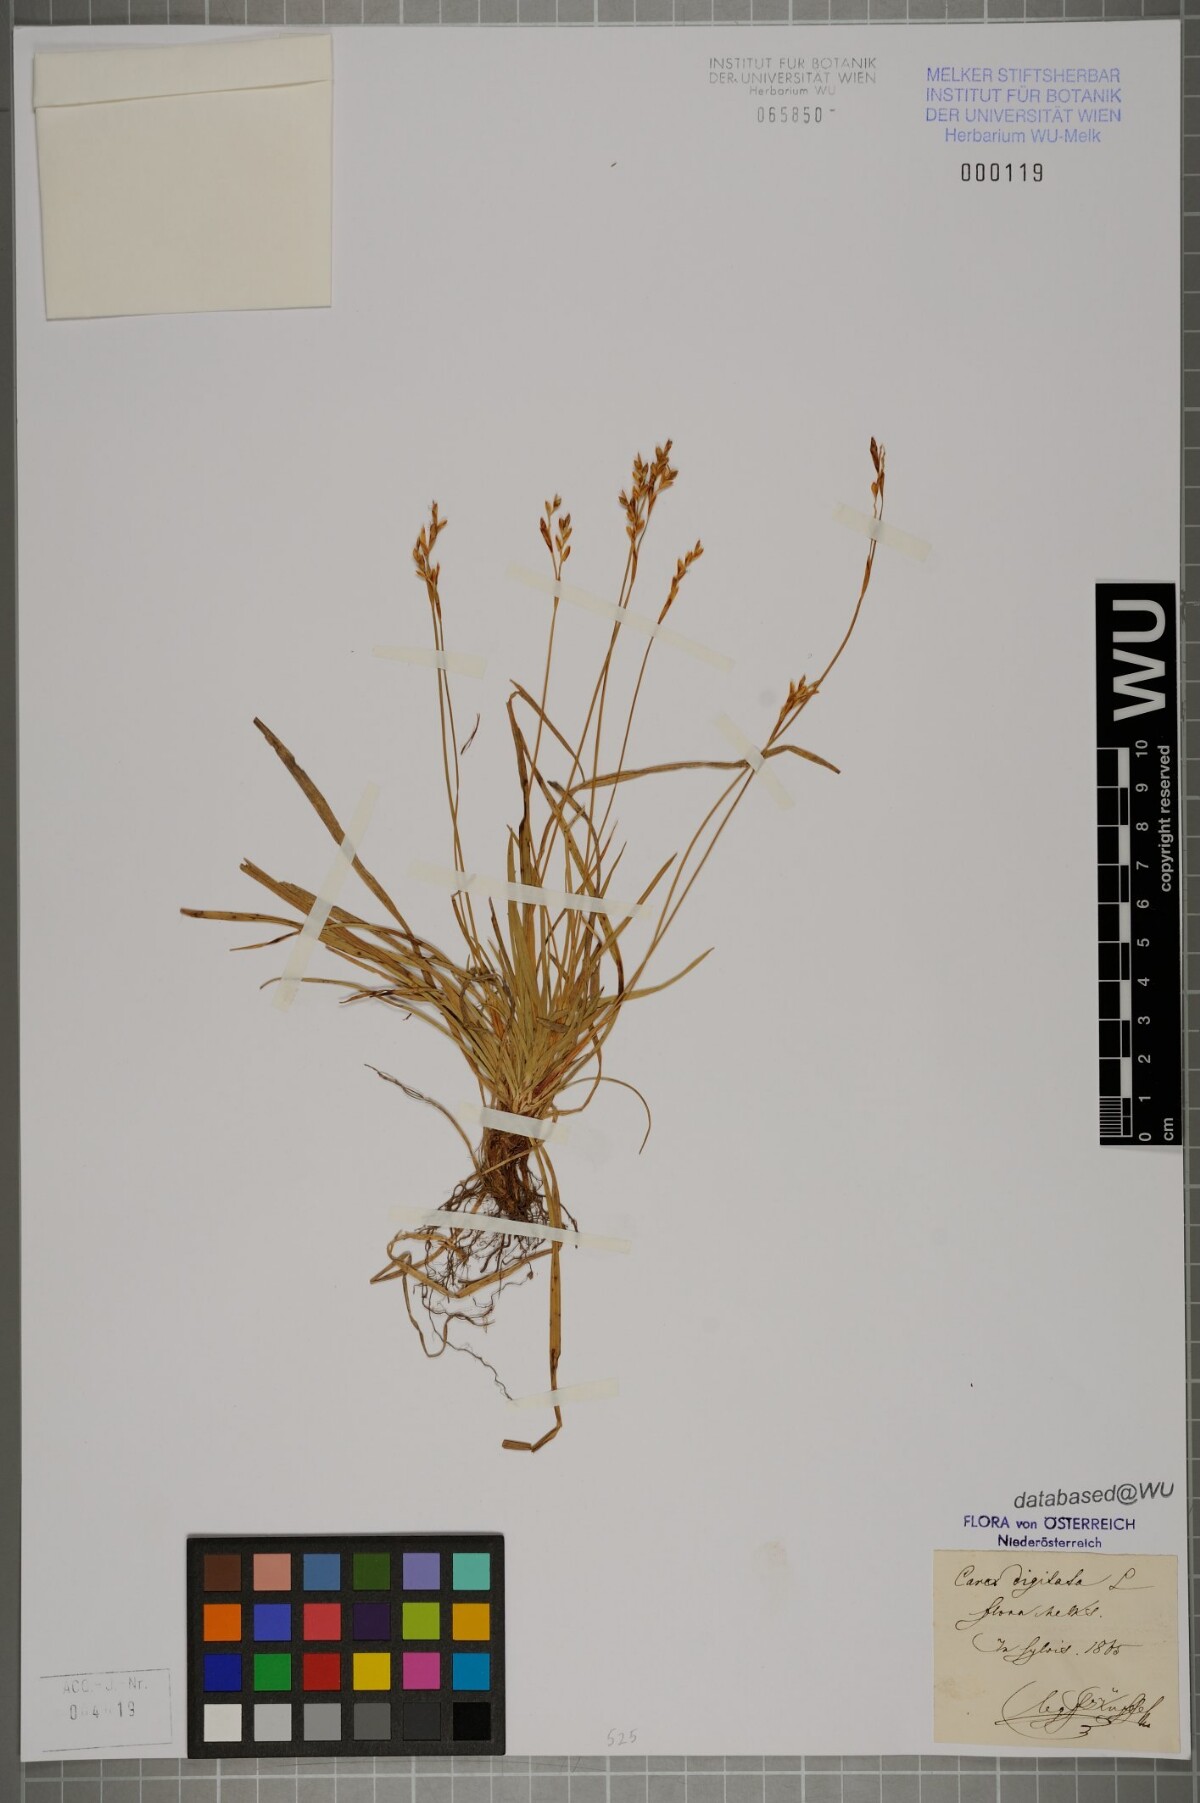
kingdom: Plantae
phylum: Tracheophyta
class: Liliopsida
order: Poales
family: Cyperaceae
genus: Carex
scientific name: Carex digitata
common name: Fingered sedge
